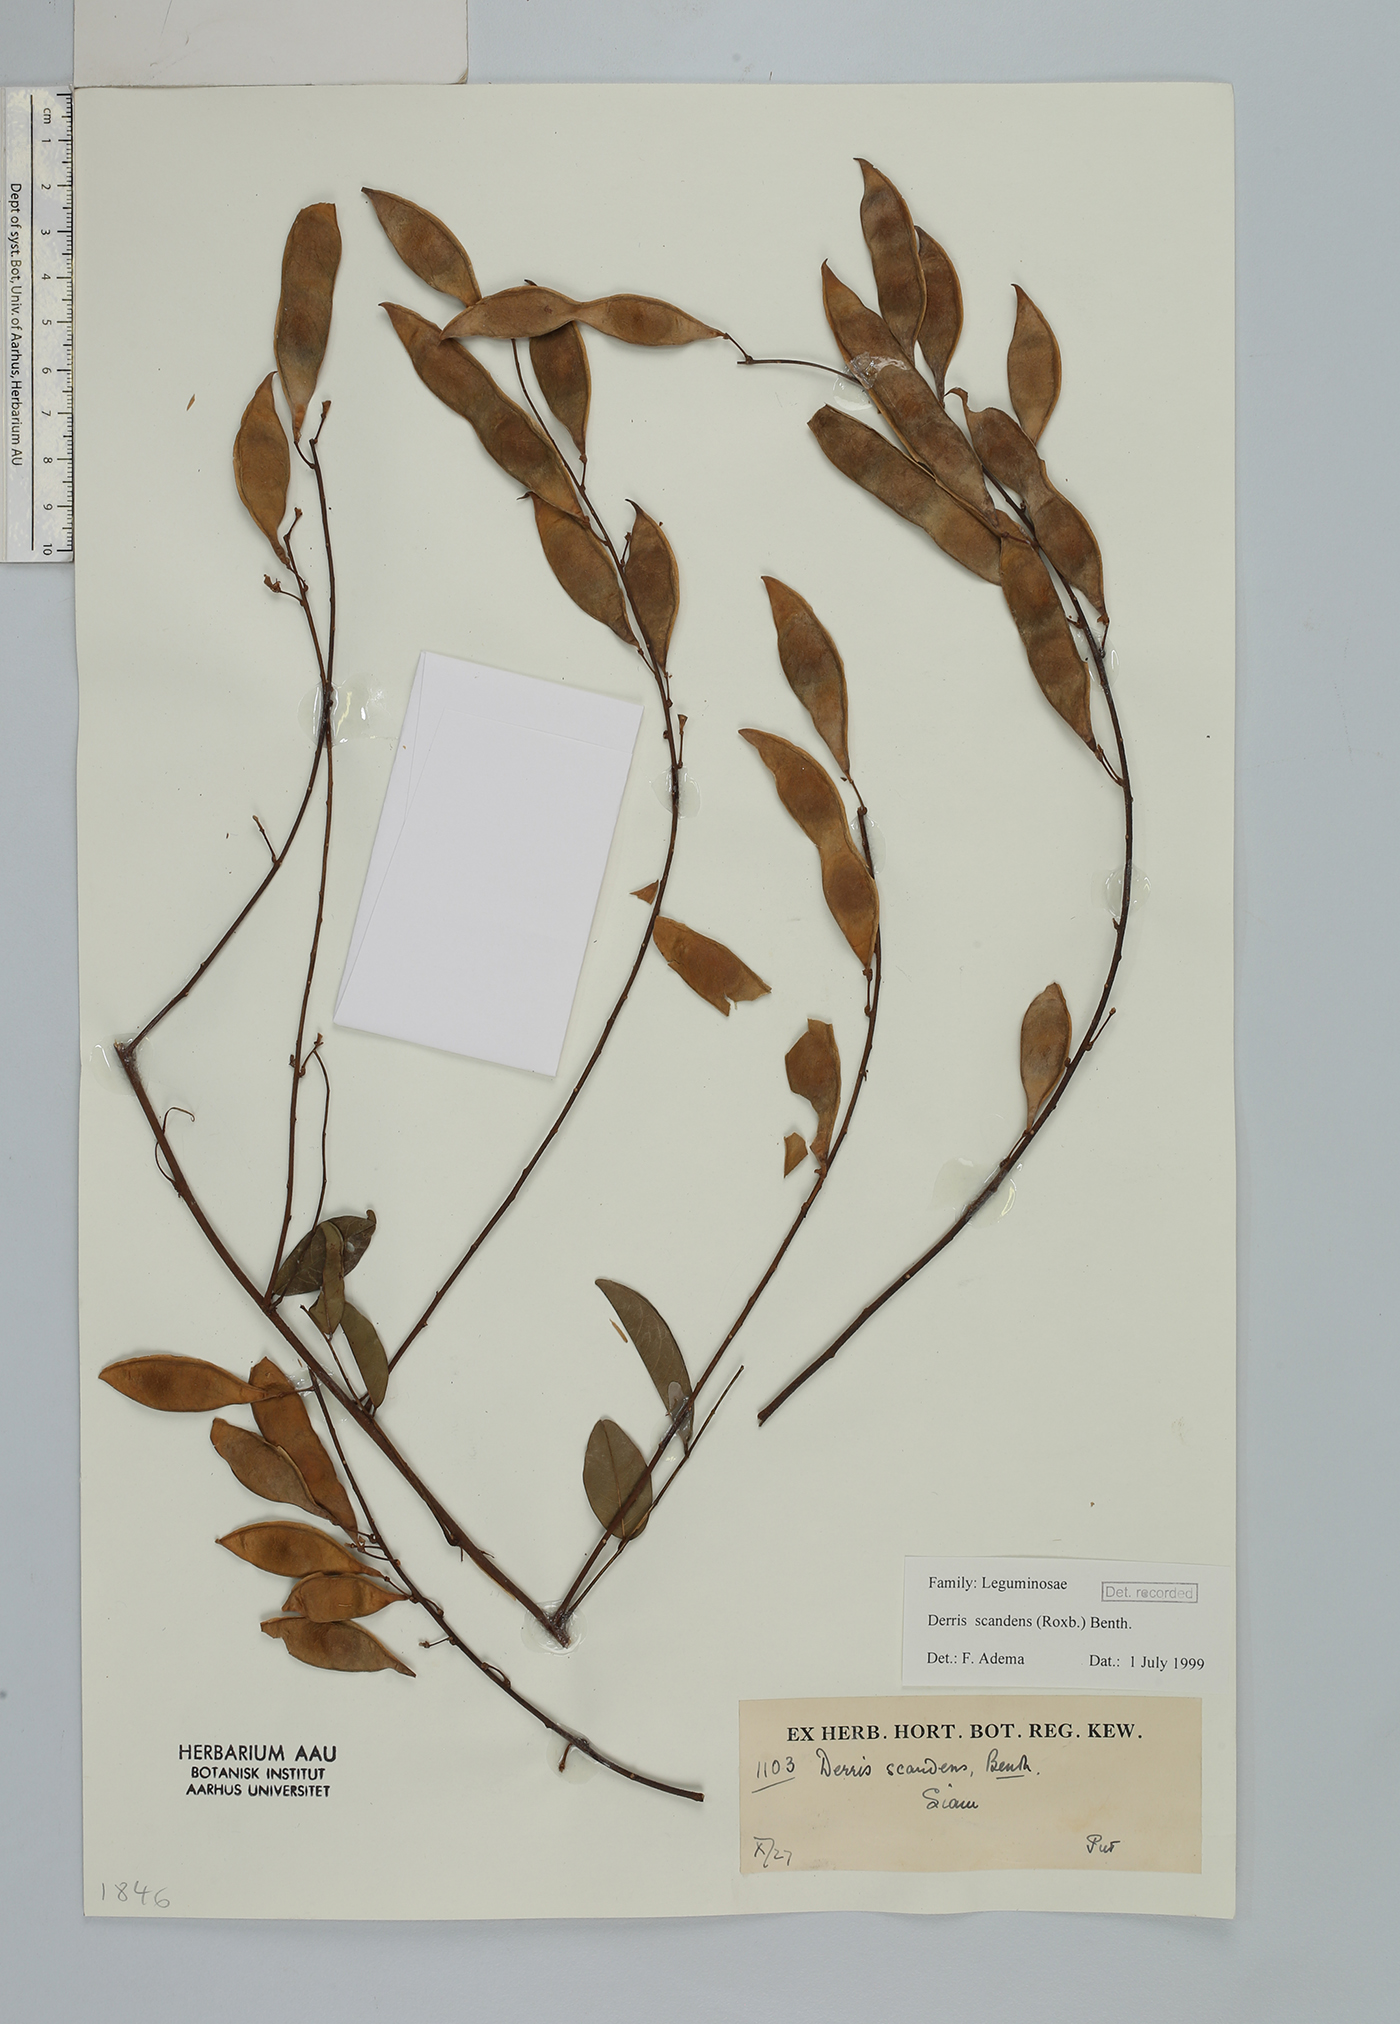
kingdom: Plantae
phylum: Tracheophyta
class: Magnoliopsida
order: Fabales
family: Fabaceae
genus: Brachypterum
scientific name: Brachypterum scandens
